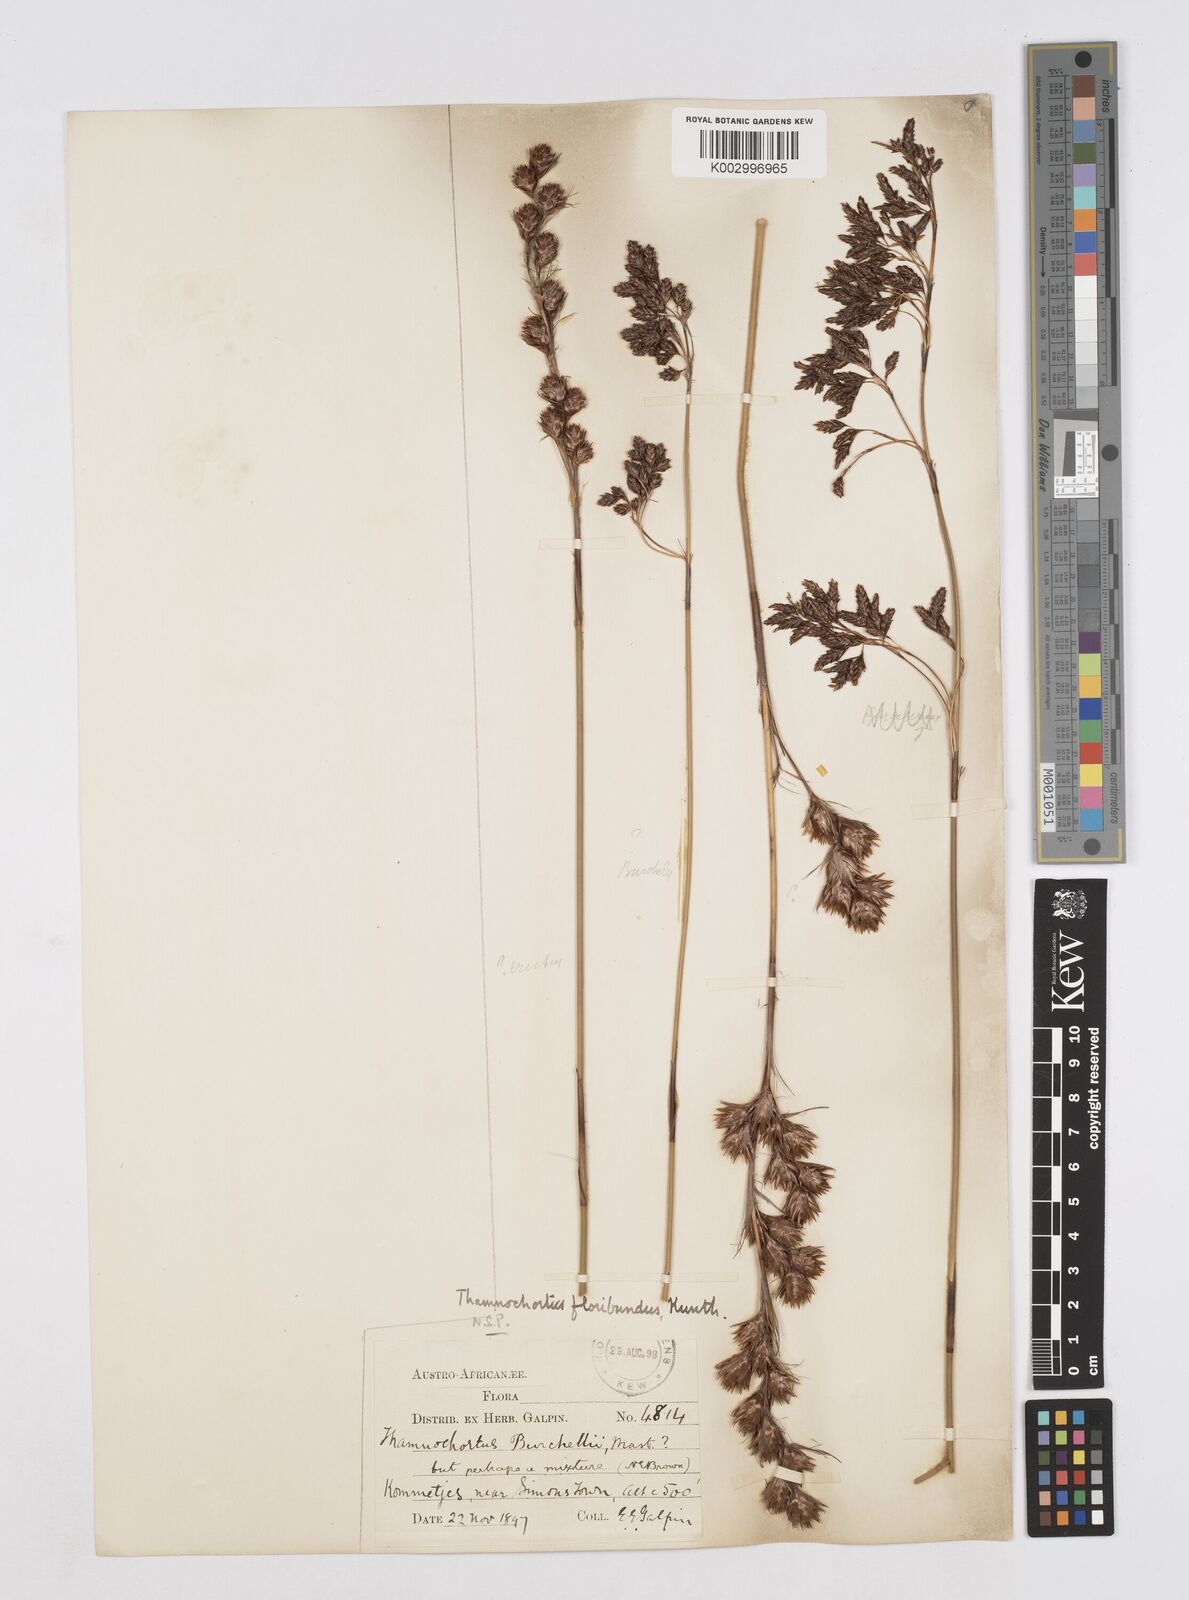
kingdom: Plantae
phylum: Tracheophyta
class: Liliopsida
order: Poales
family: Restionaceae
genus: Thamnochortus
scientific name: Thamnochortus erectus
